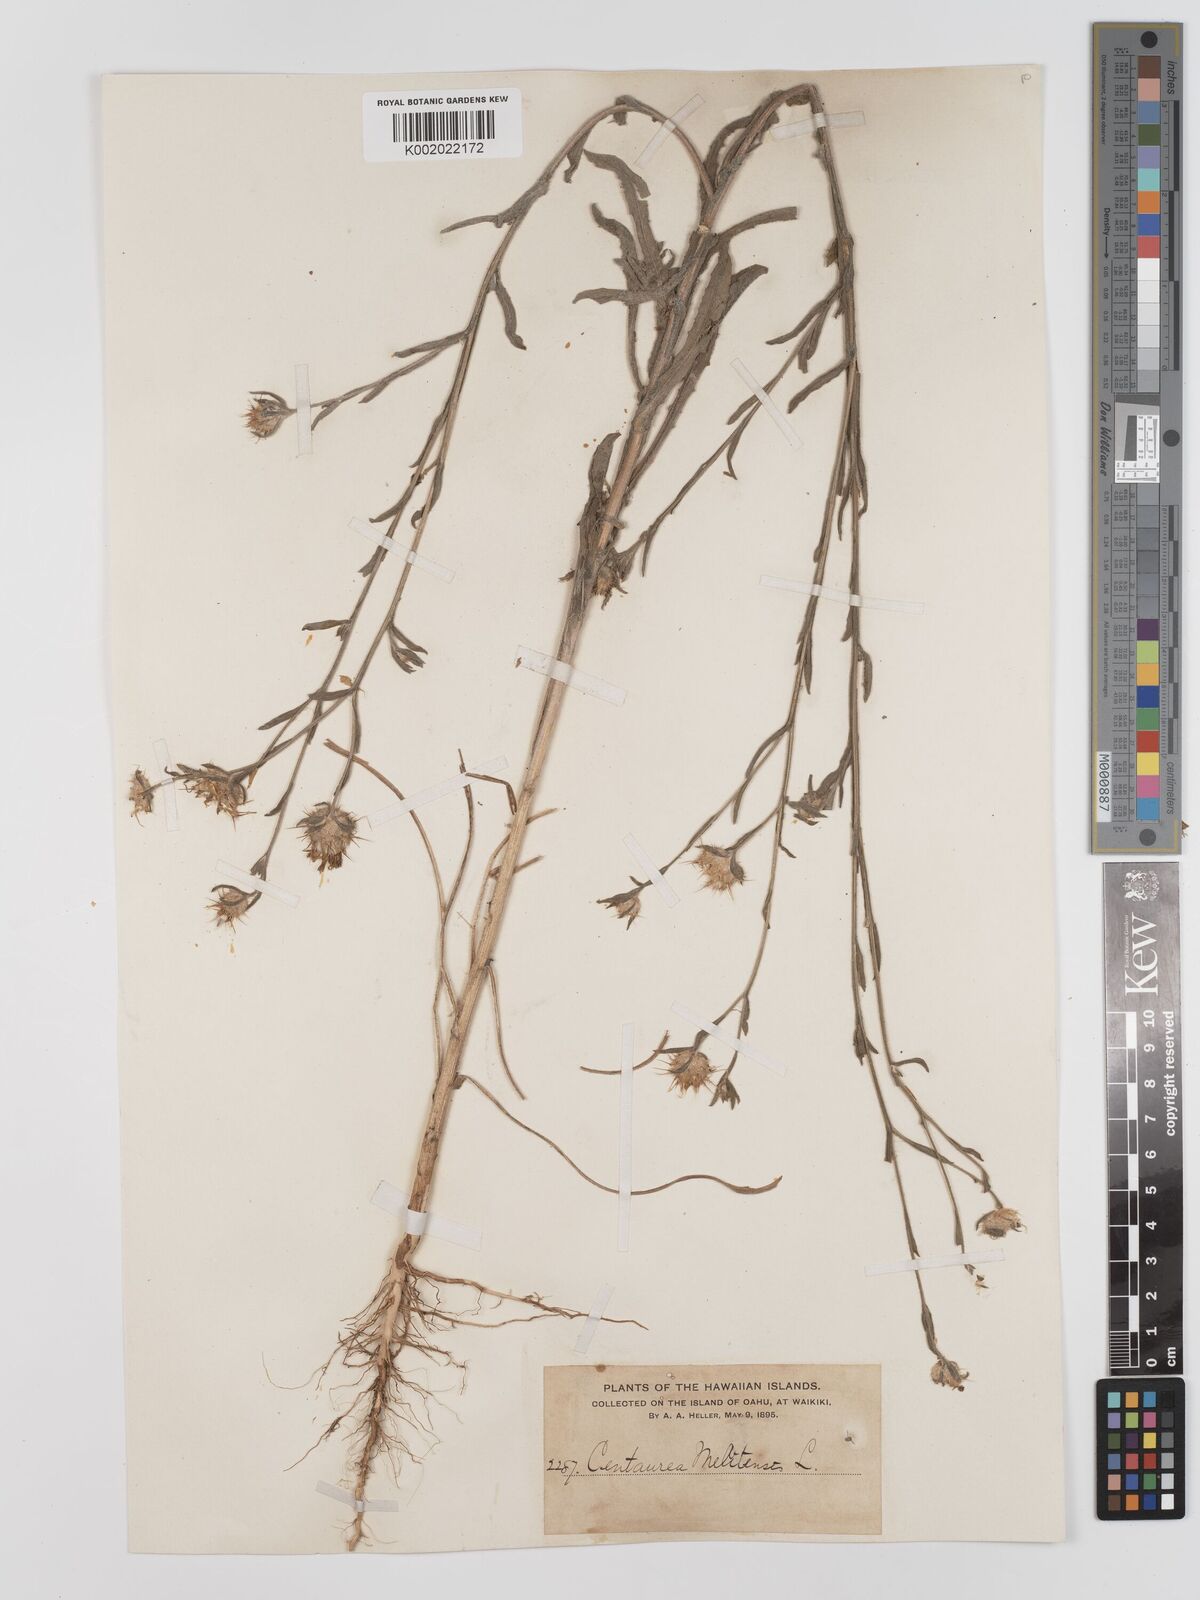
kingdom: Plantae
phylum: Tracheophyta
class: Magnoliopsida
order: Asterales
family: Asteraceae
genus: Centaurea
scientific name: Centaurea melitensis
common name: Maltese star-thistle
